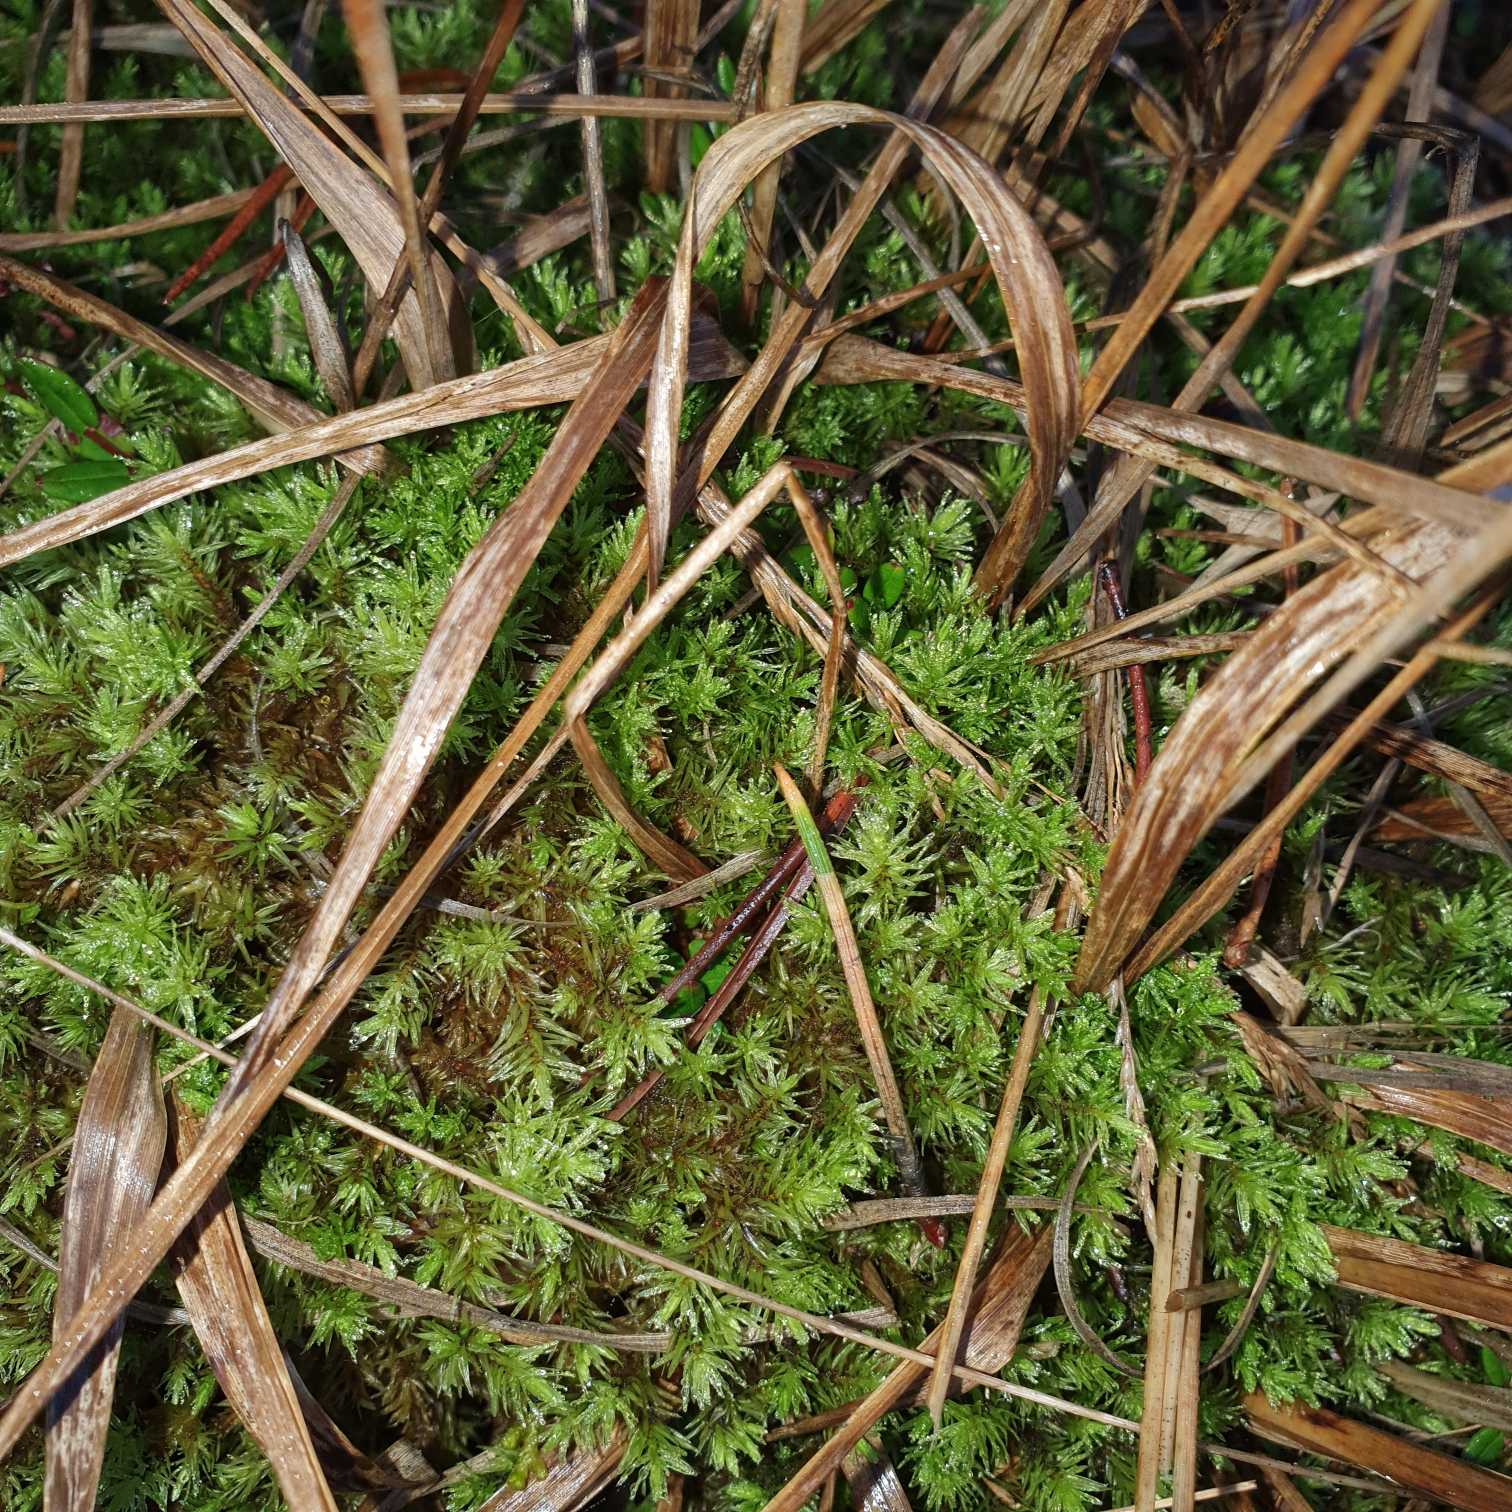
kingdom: Plantae
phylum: Bryophyta
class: Bryopsida
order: Aulacomniales
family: Aulacomniaceae
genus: Aulacomnium
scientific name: Aulacomnium palustre
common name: Almindelig filtmos
